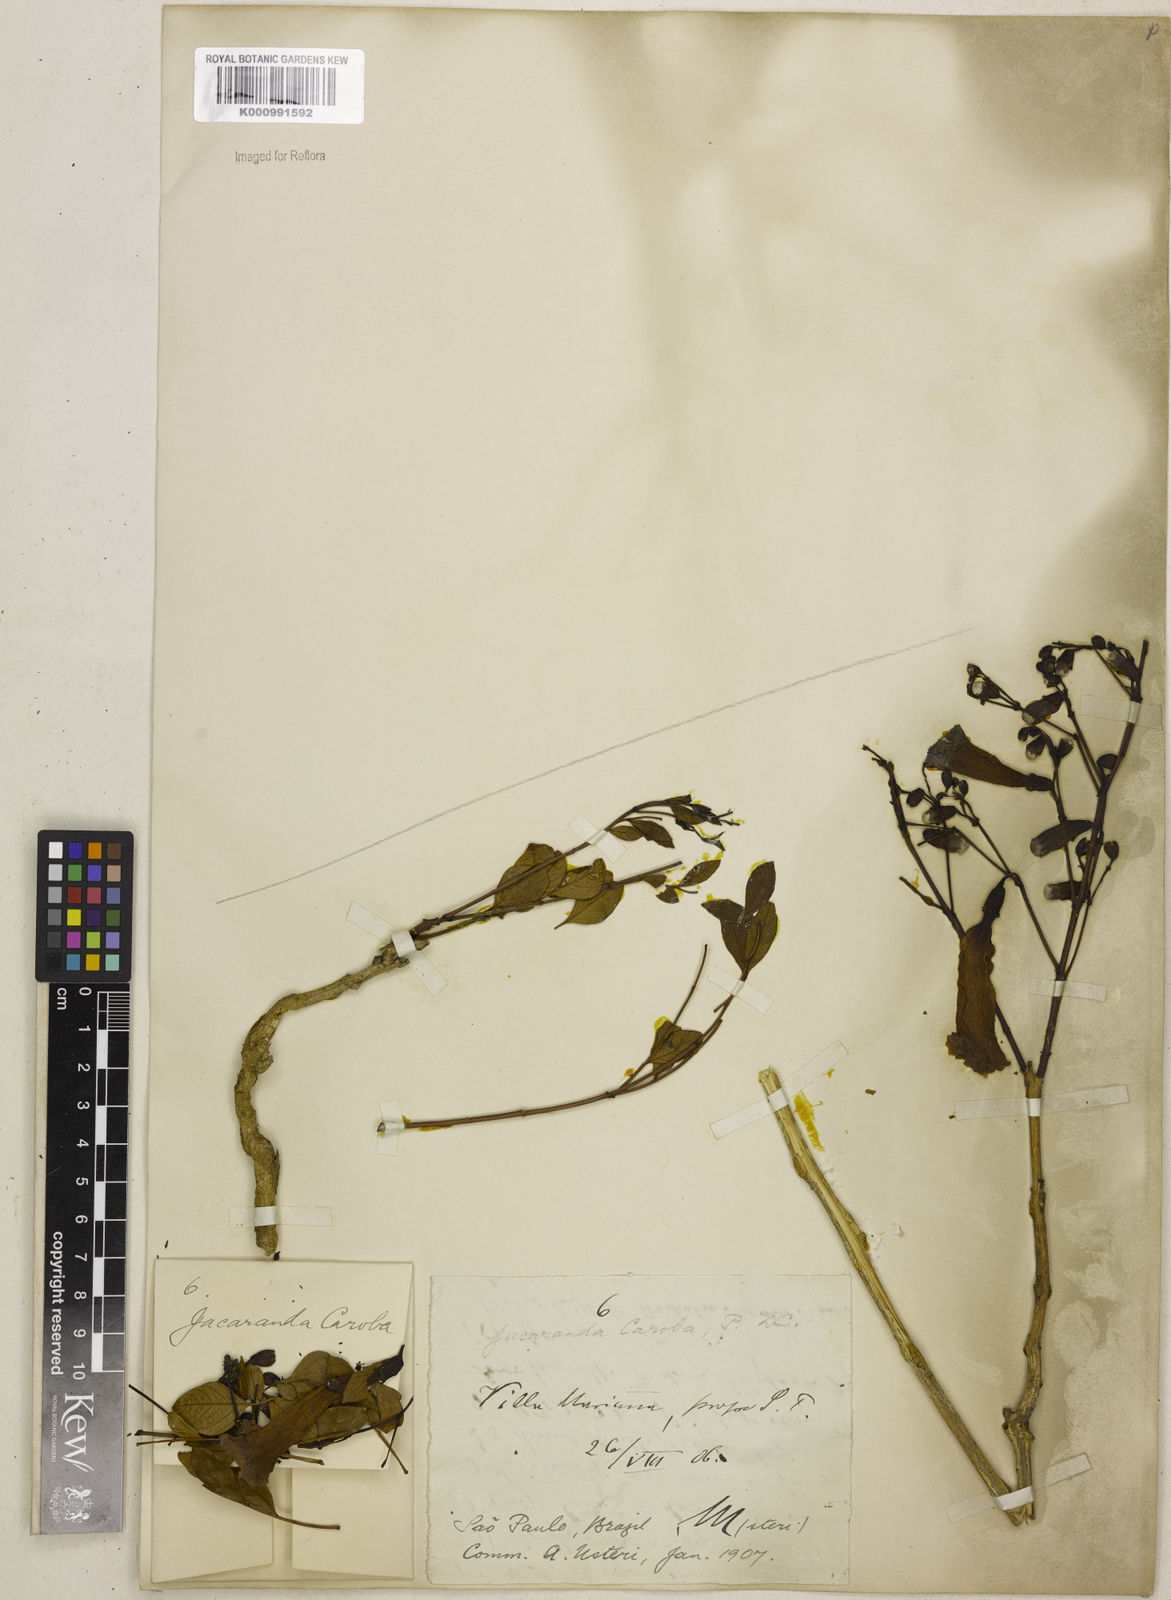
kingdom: Plantae
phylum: Tracheophyta
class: Magnoliopsida
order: Lamiales
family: Bignoniaceae
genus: Jacaranda
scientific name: Jacaranda caroba
